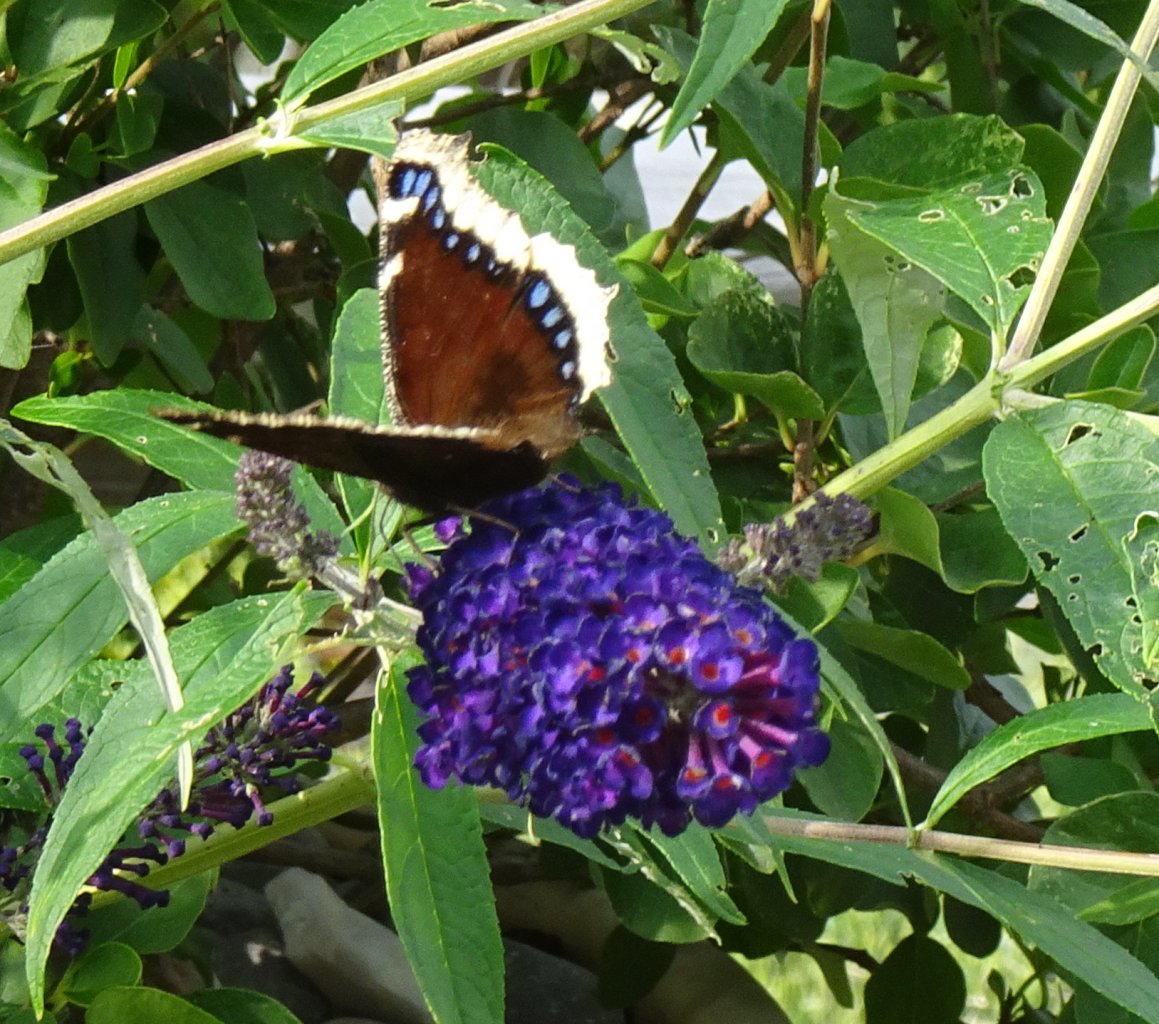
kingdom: Animalia
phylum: Arthropoda
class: Insecta
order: Lepidoptera
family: Nymphalidae
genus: Nymphalis
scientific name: Nymphalis antiopa
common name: Mourning Cloak
